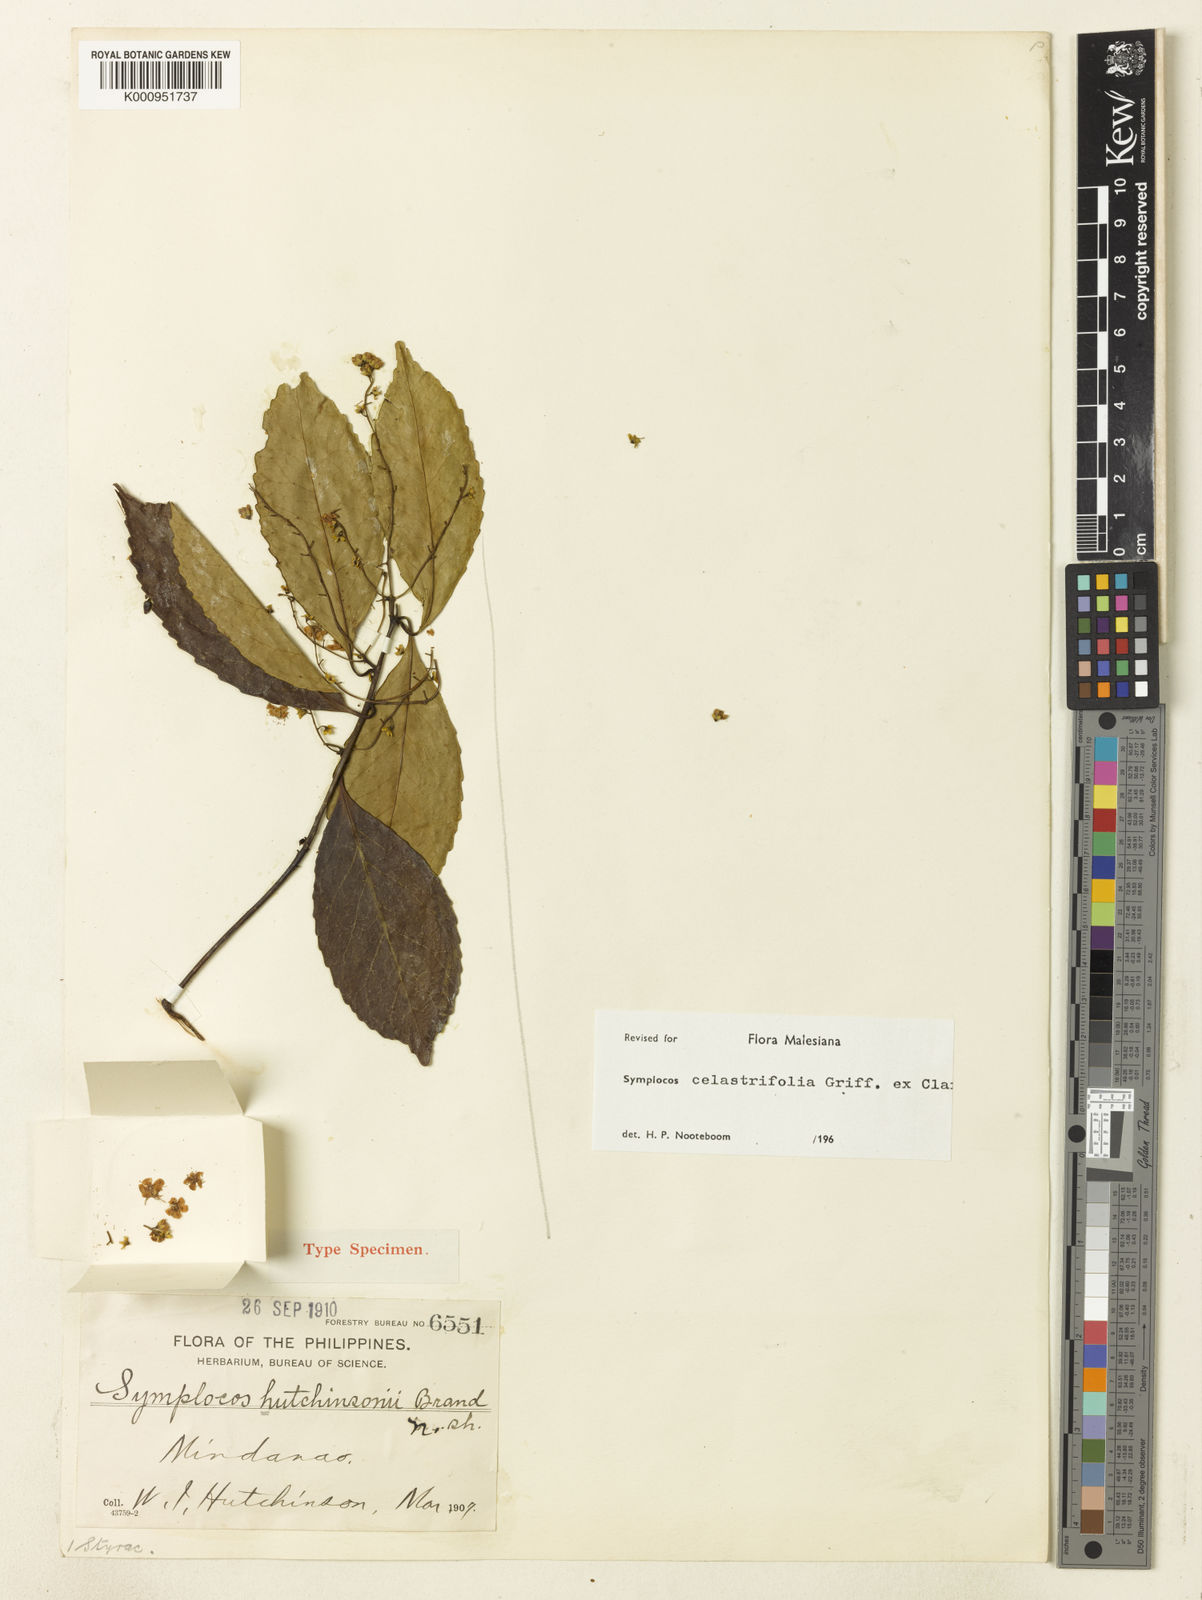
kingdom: Plantae
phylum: Tracheophyta
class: Magnoliopsida
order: Ericales
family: Symplocaceae
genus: Symplocos
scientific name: Symplocos celastrifolia
